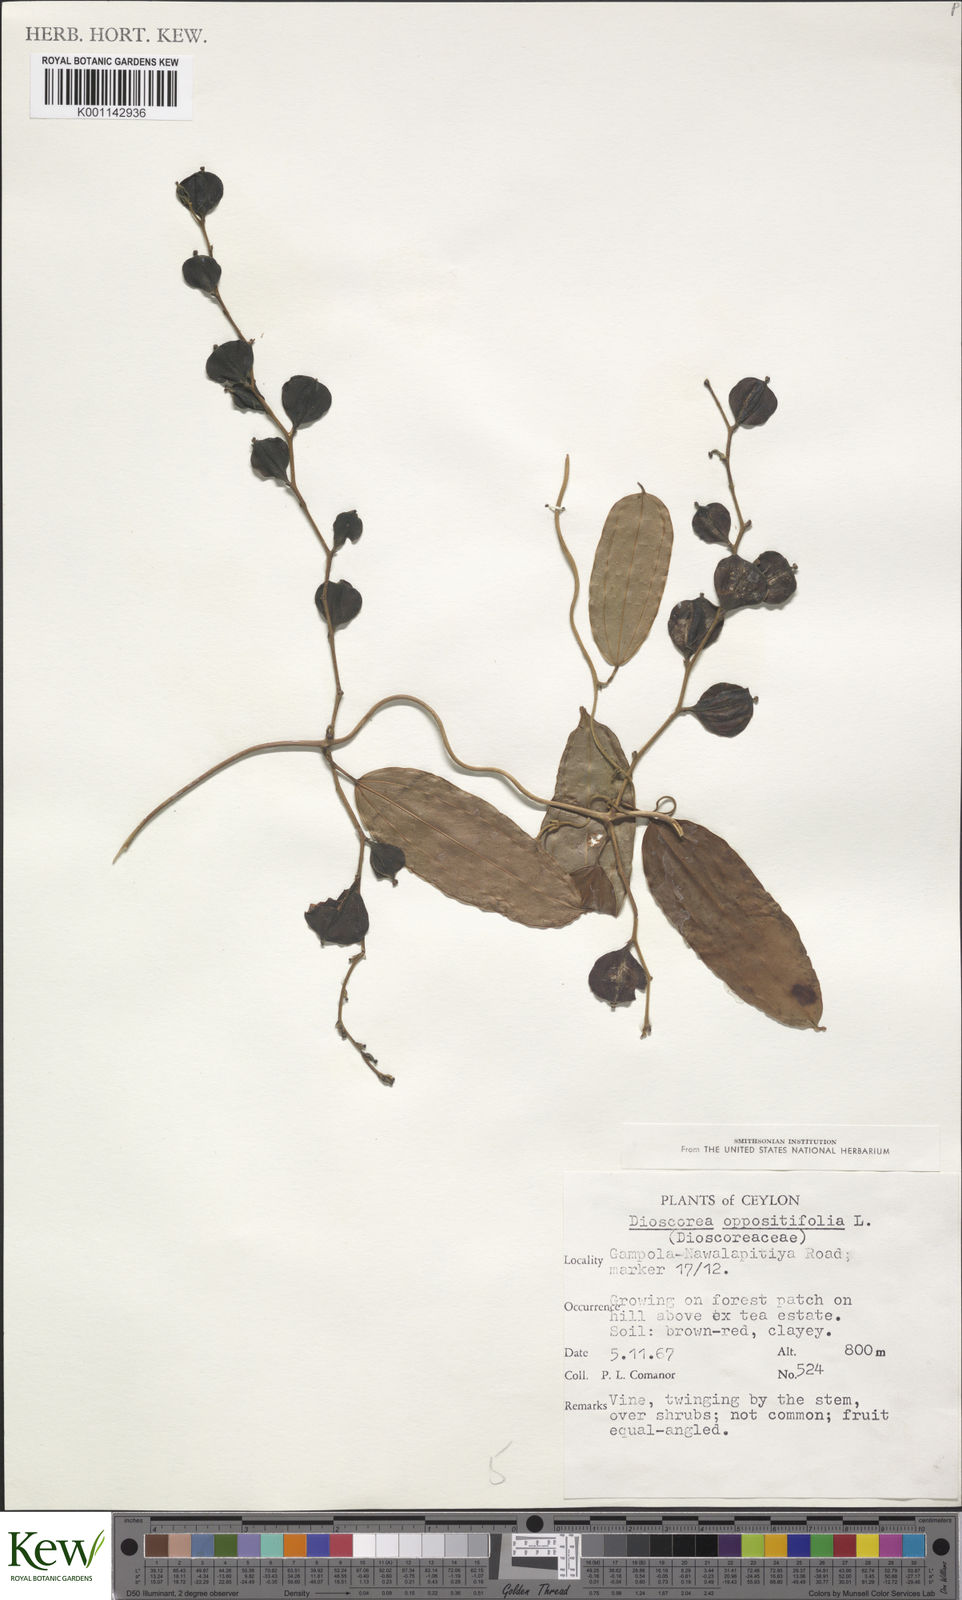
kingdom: Plantae
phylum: Tracheophyta
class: Liliopsida
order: Dioscoreales
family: Dioscoreaceae
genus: Dioscorea
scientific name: Dioscorea oppositifolia
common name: Chinese yam
